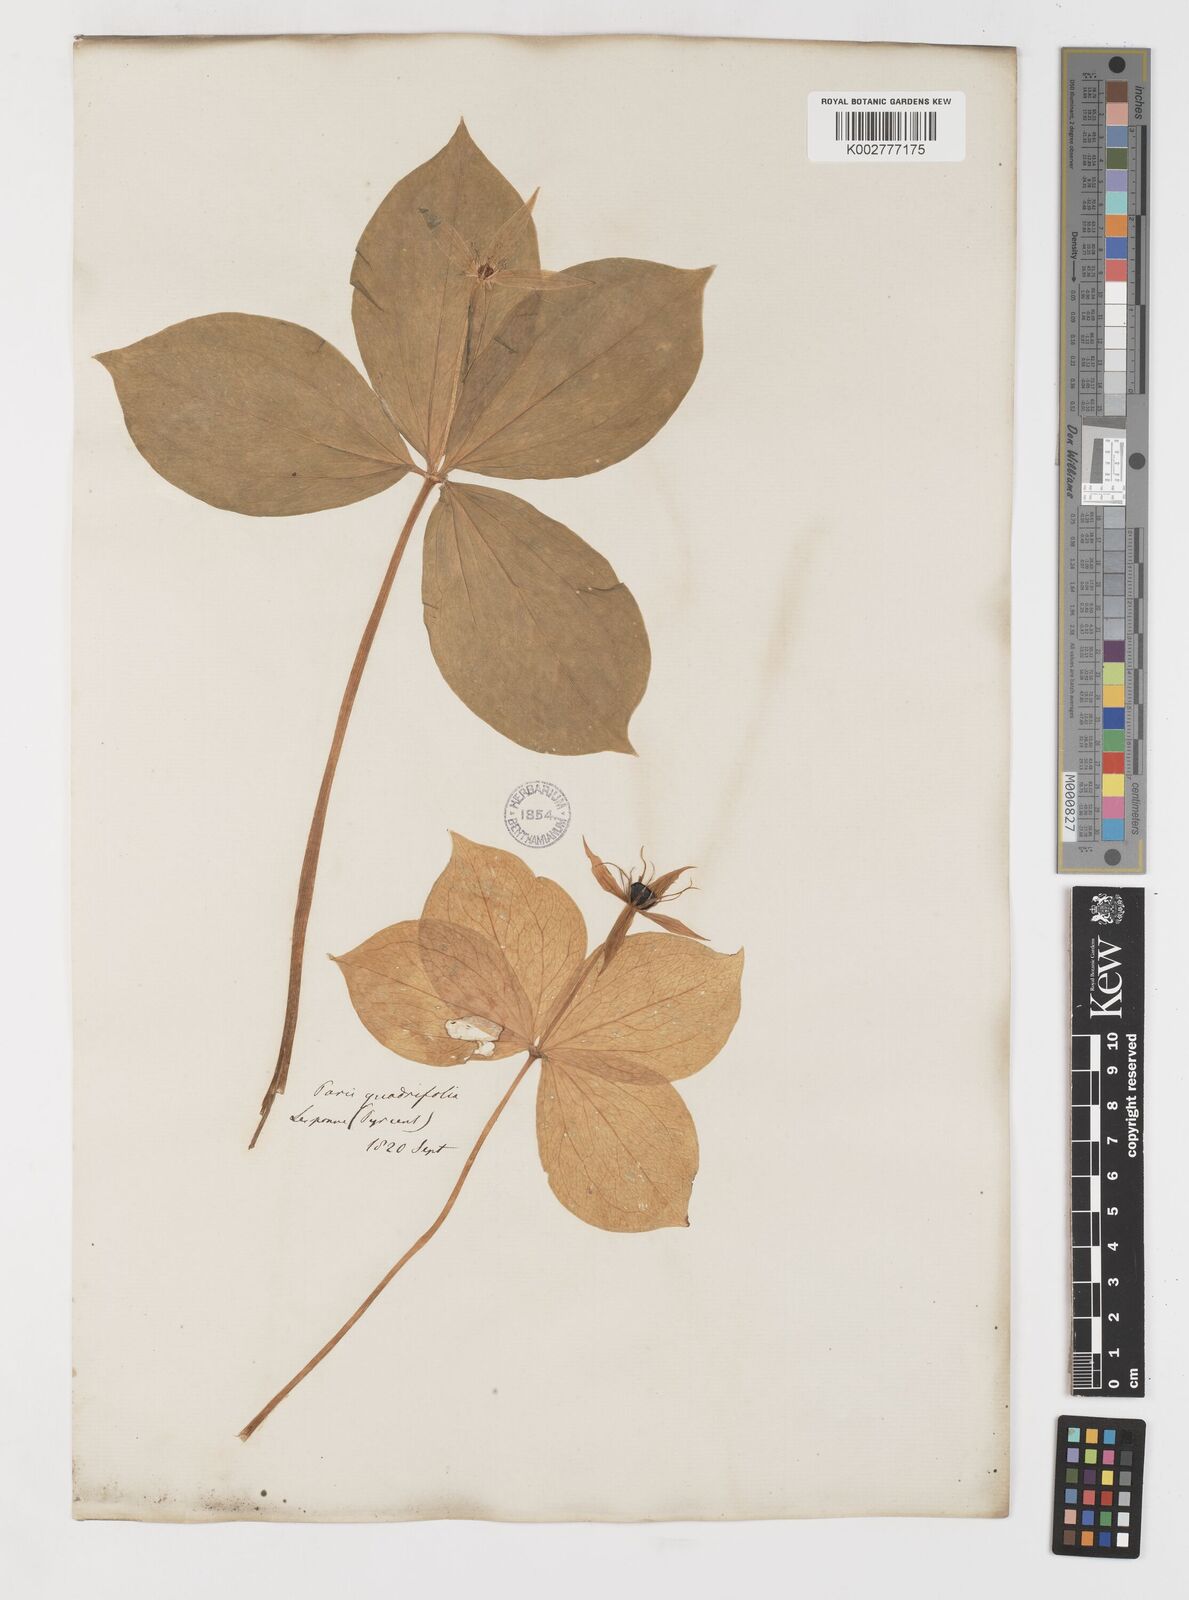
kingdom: Plantae
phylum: Tracheophyta
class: Liliopsida
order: Liliales
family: Melanthiaceae
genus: Paris
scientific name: Paris quadrifolia
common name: Herb-paris
